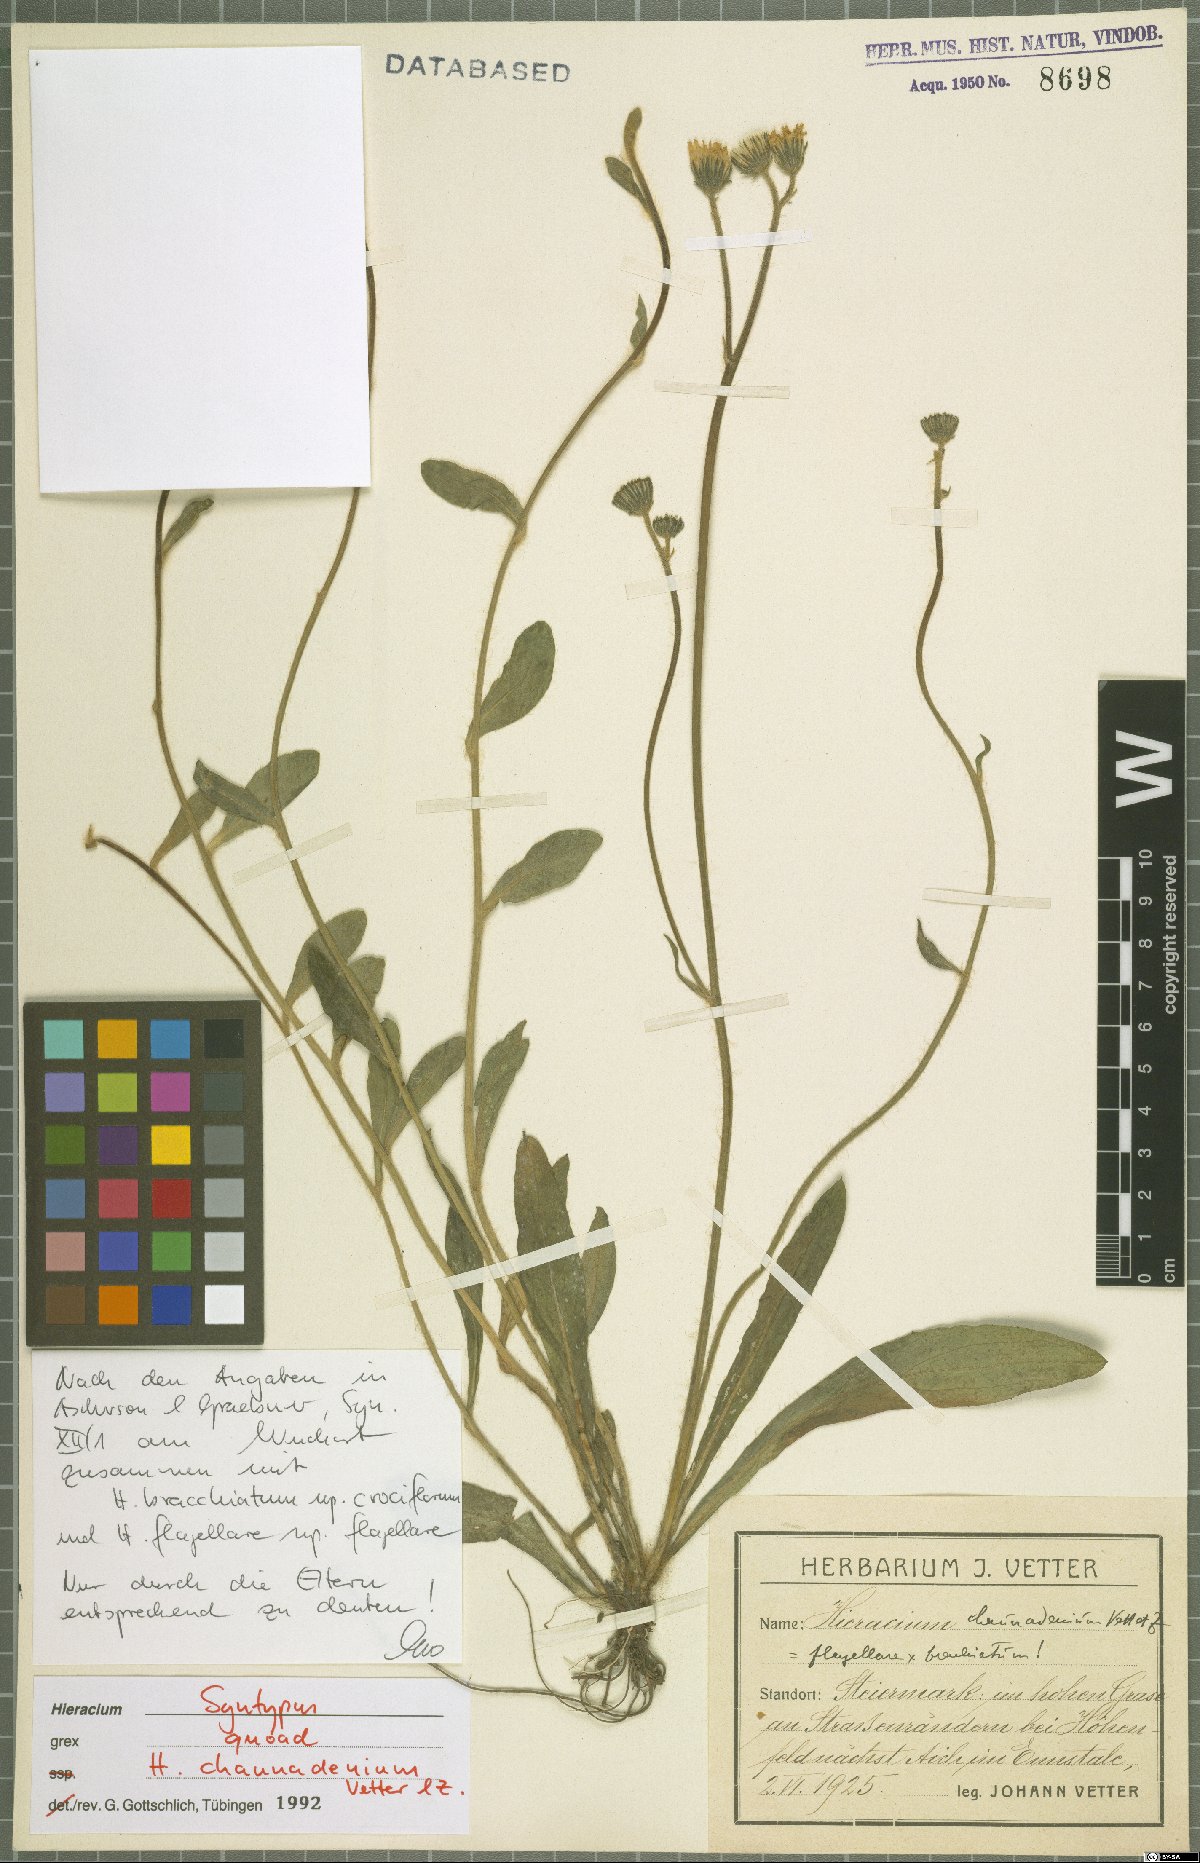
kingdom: Plantae
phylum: Tracheophyta
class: Magnoliopsida
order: Asterales
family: Asteraceae
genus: Pilosella
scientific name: Pilosella melinomelas
